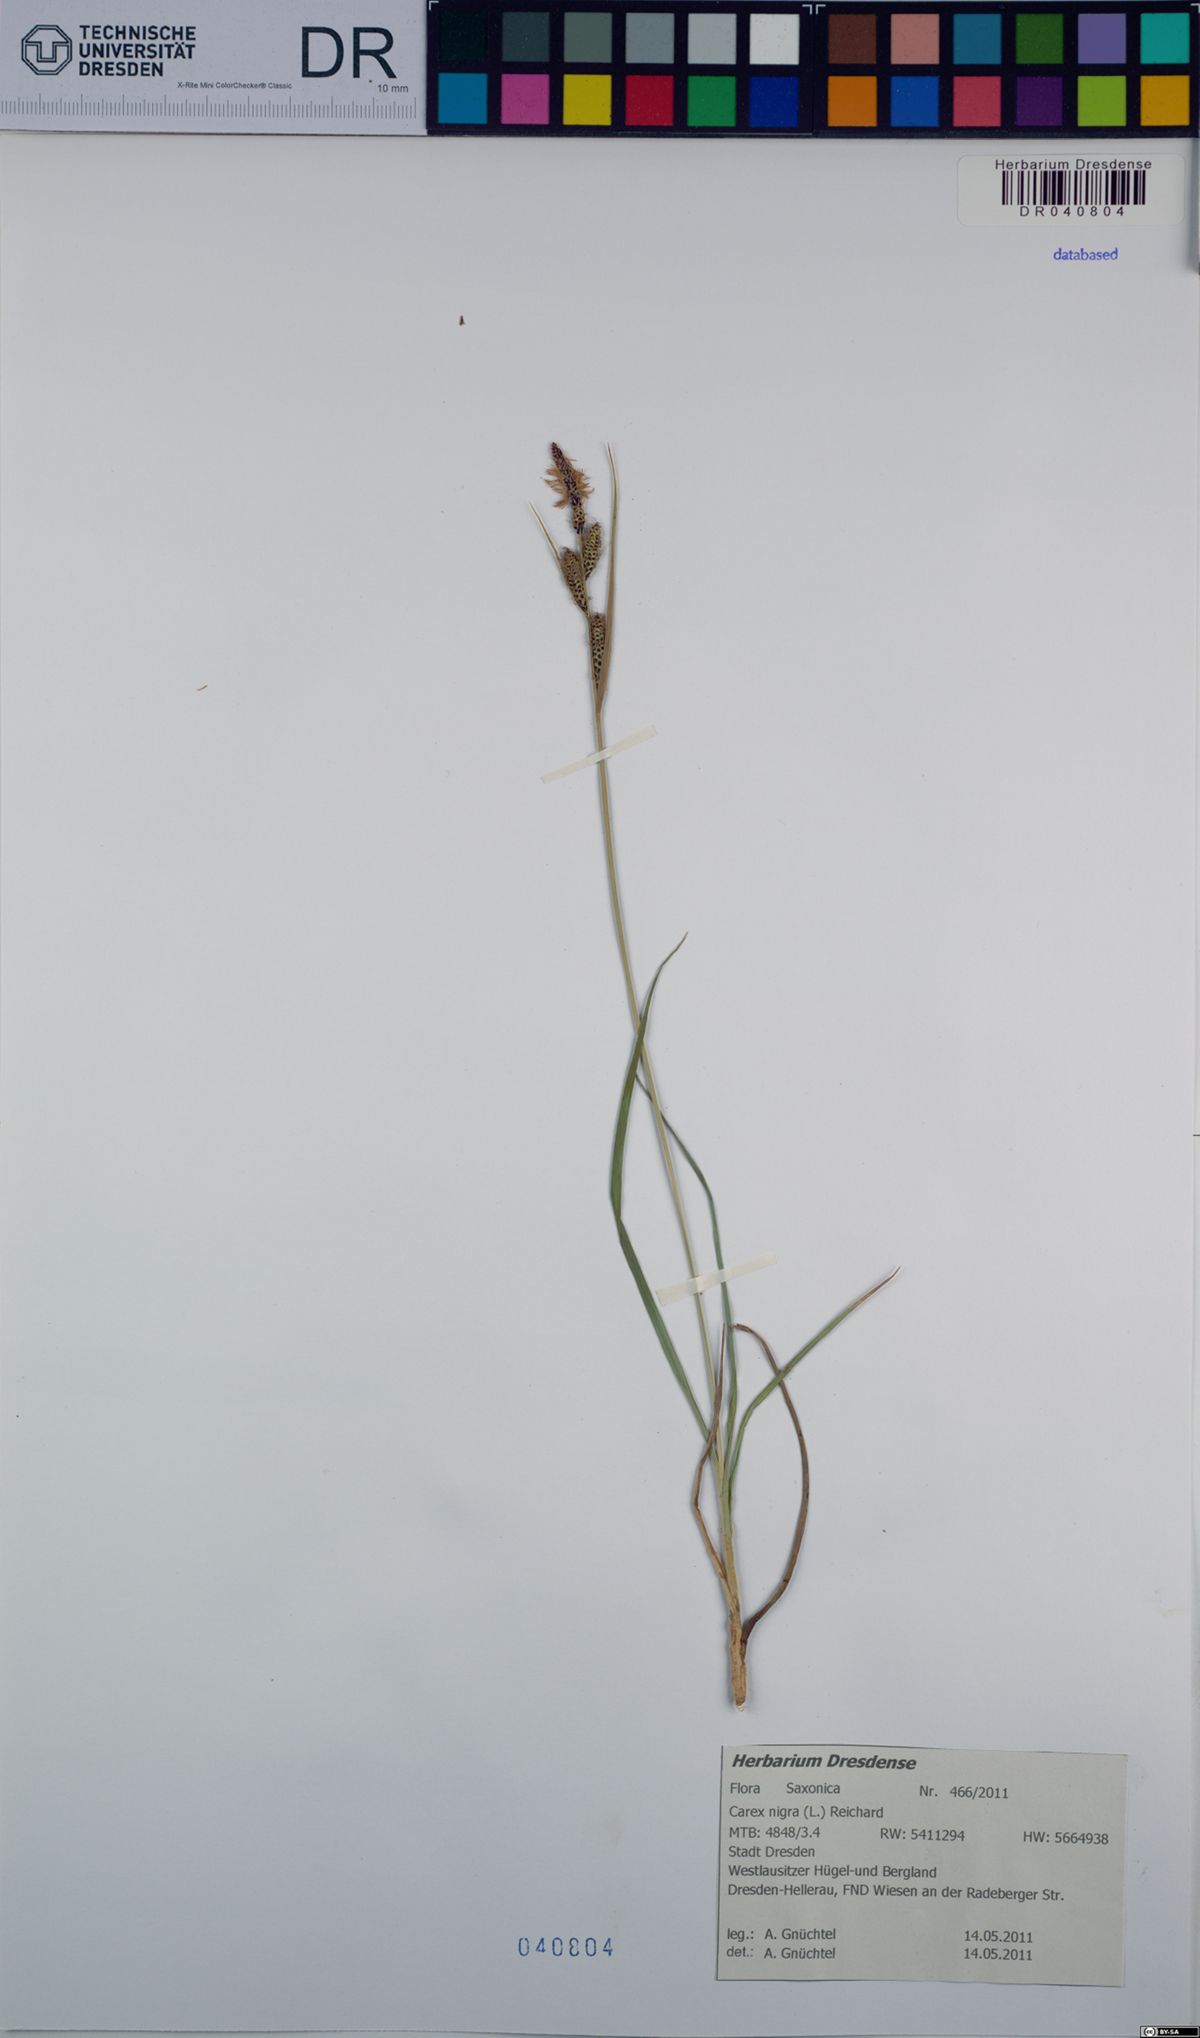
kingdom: Plantae
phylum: Tracheophyta
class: Liliopsida
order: Poales
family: Cyperaceae
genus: Carex
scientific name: Carex nigra
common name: Common sedge
